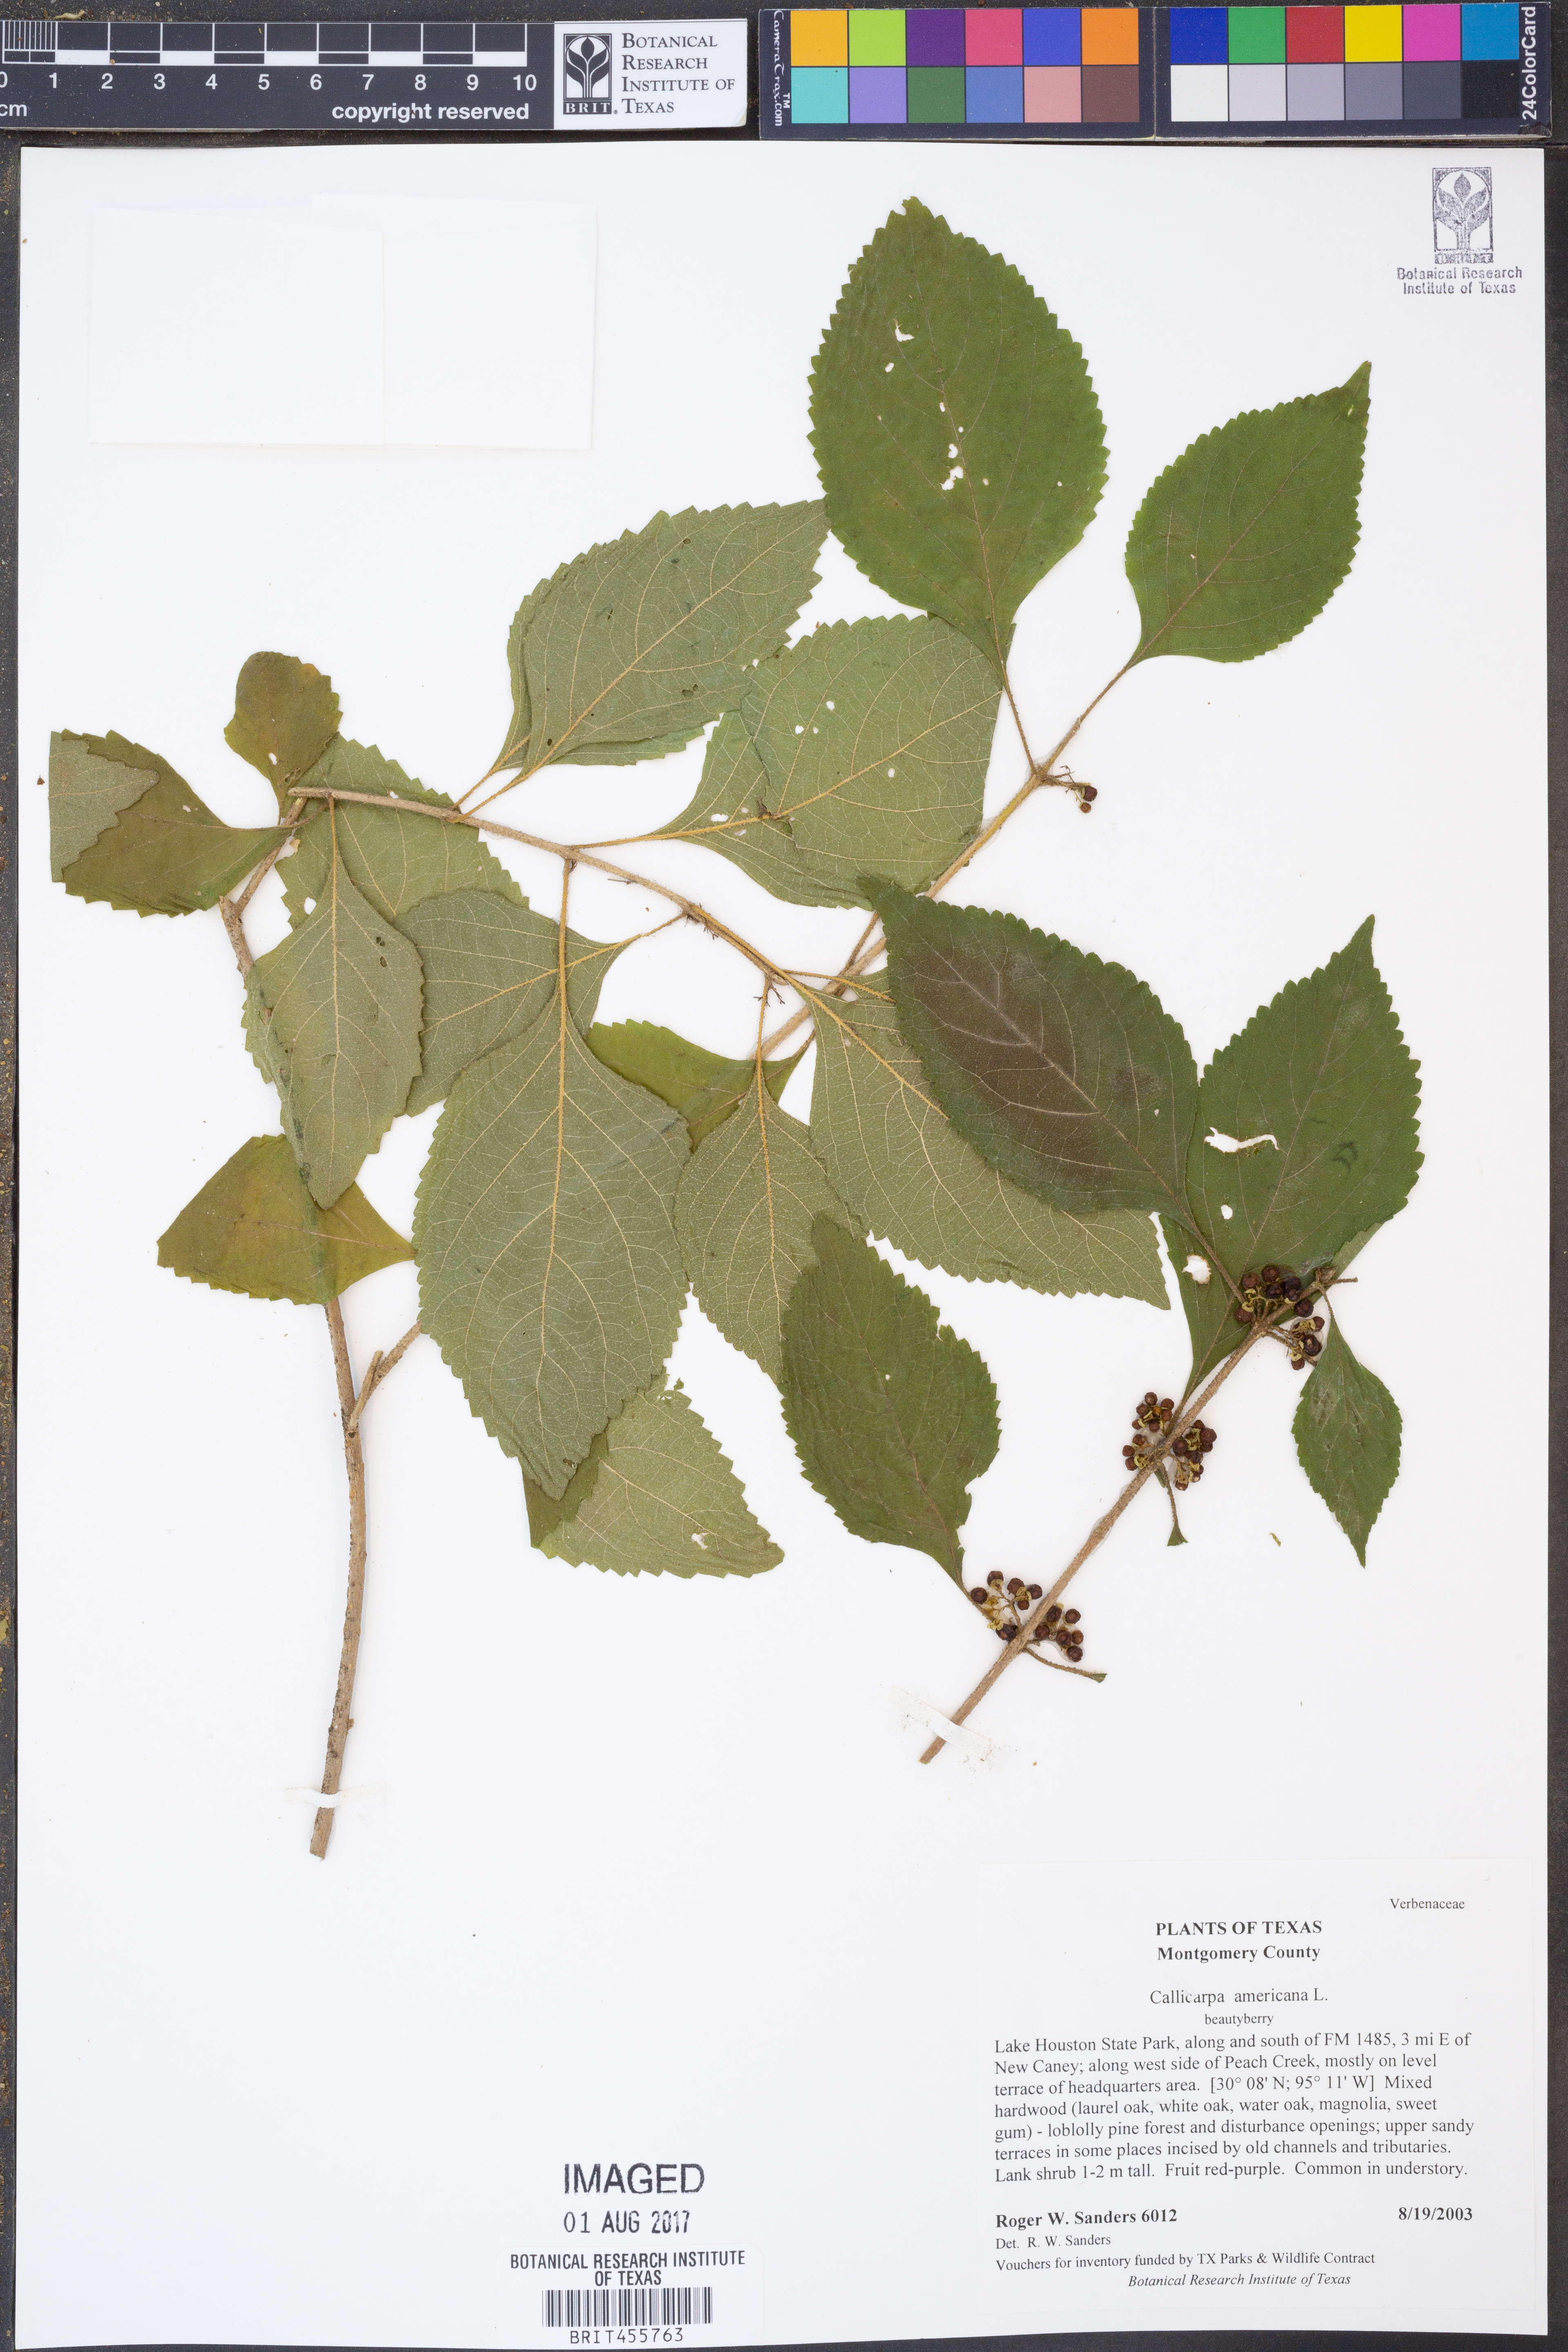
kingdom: Plantae
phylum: Tracheophyta
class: Magnoliopsida
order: Lamiales
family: Lamiaceae
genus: Callicarpa
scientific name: Callicarpa americana
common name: American beautyberry
